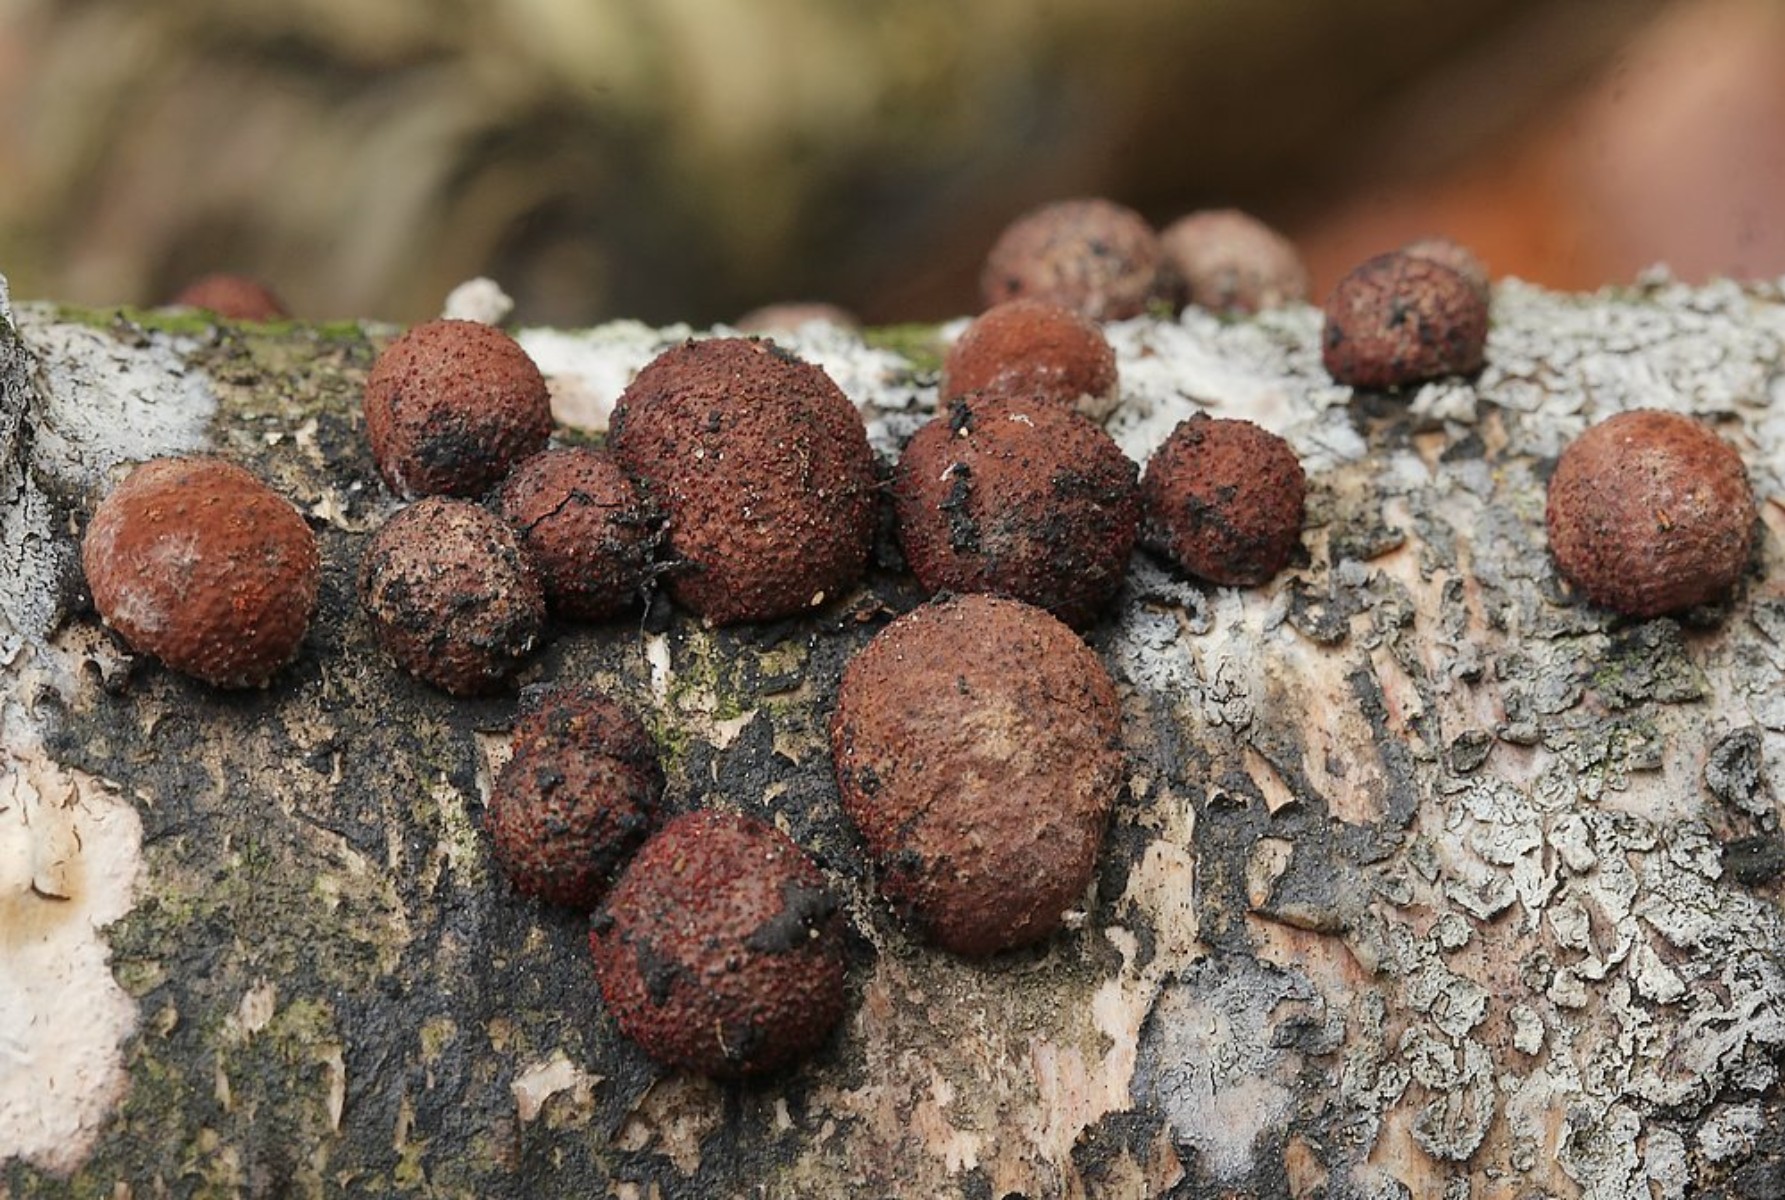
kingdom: Fungi
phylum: Ascomycota
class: Sordariomycetes
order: Xylariales
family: Hypoxylaceae
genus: Daldinia
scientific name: Daldinia decipiens
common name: stilket bæltekugle
